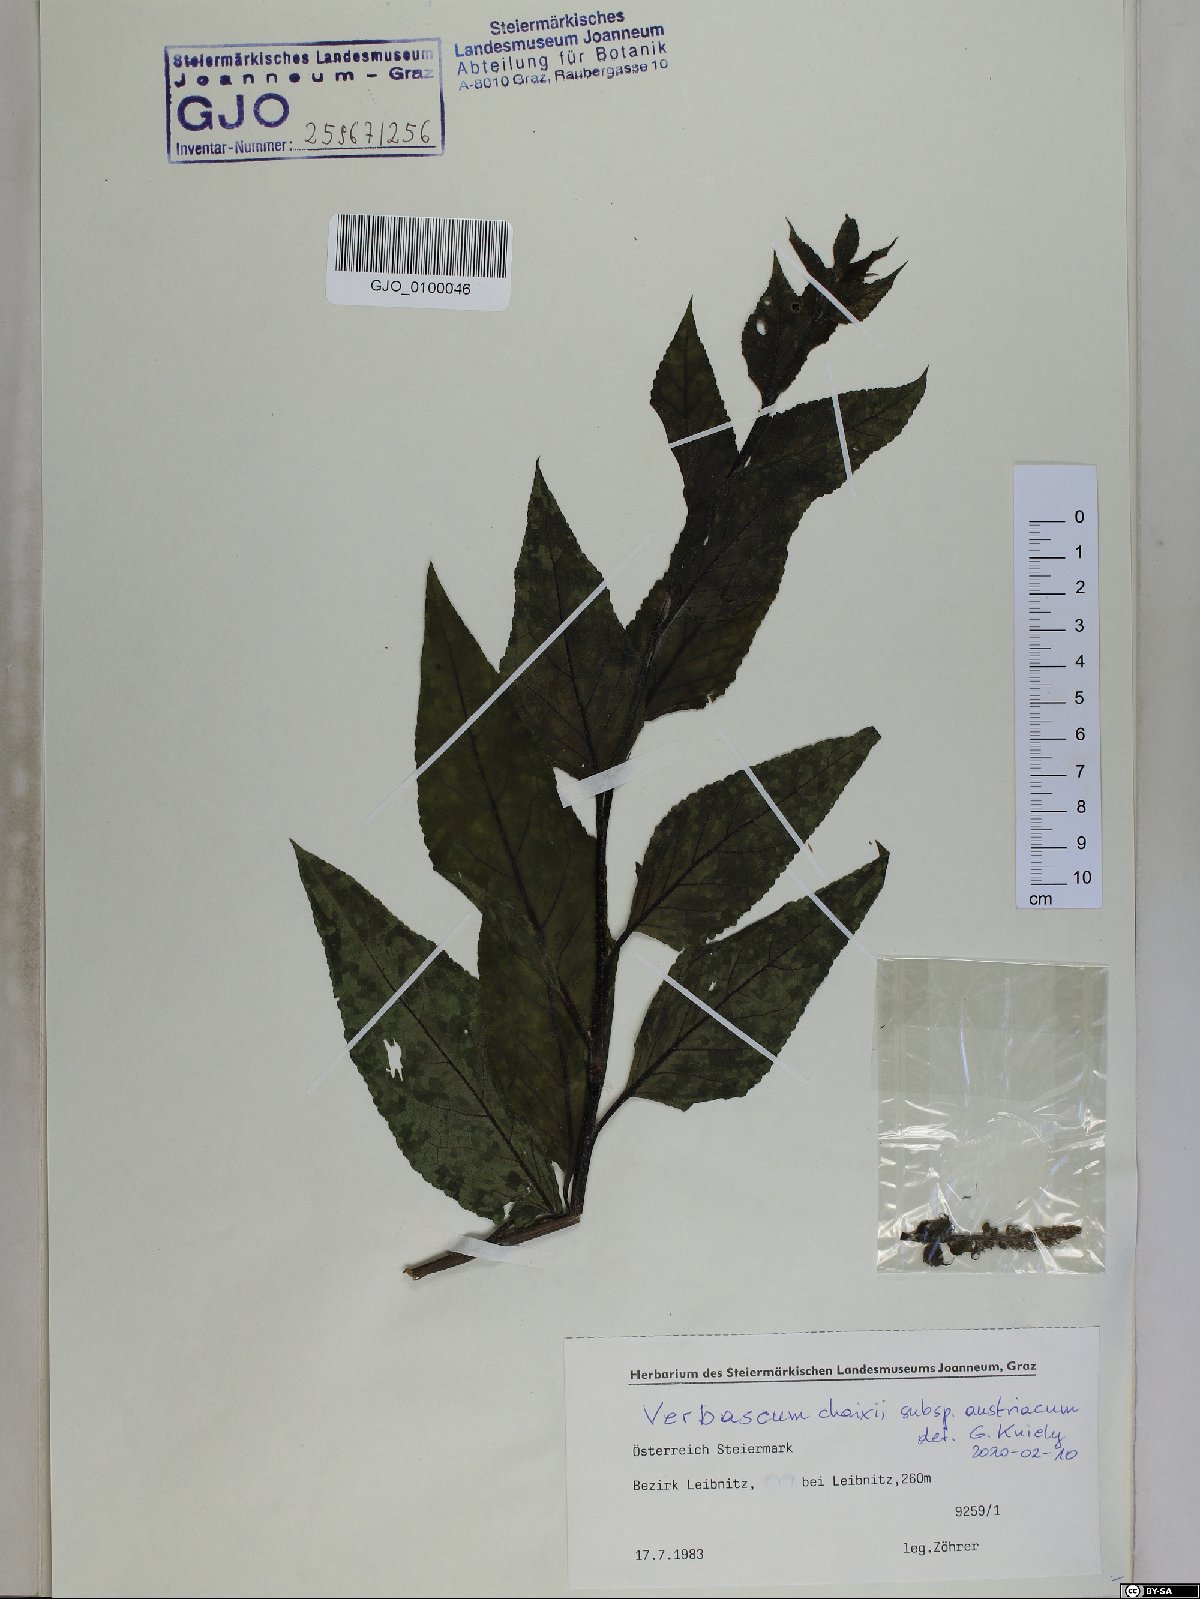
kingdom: Plantae
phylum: Tracheophyta
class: Magnoliopsida
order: Lamiales
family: Scrophulariaceae
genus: Verbascum
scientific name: Verbascum chaixii
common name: Nettle-leaved mullein
